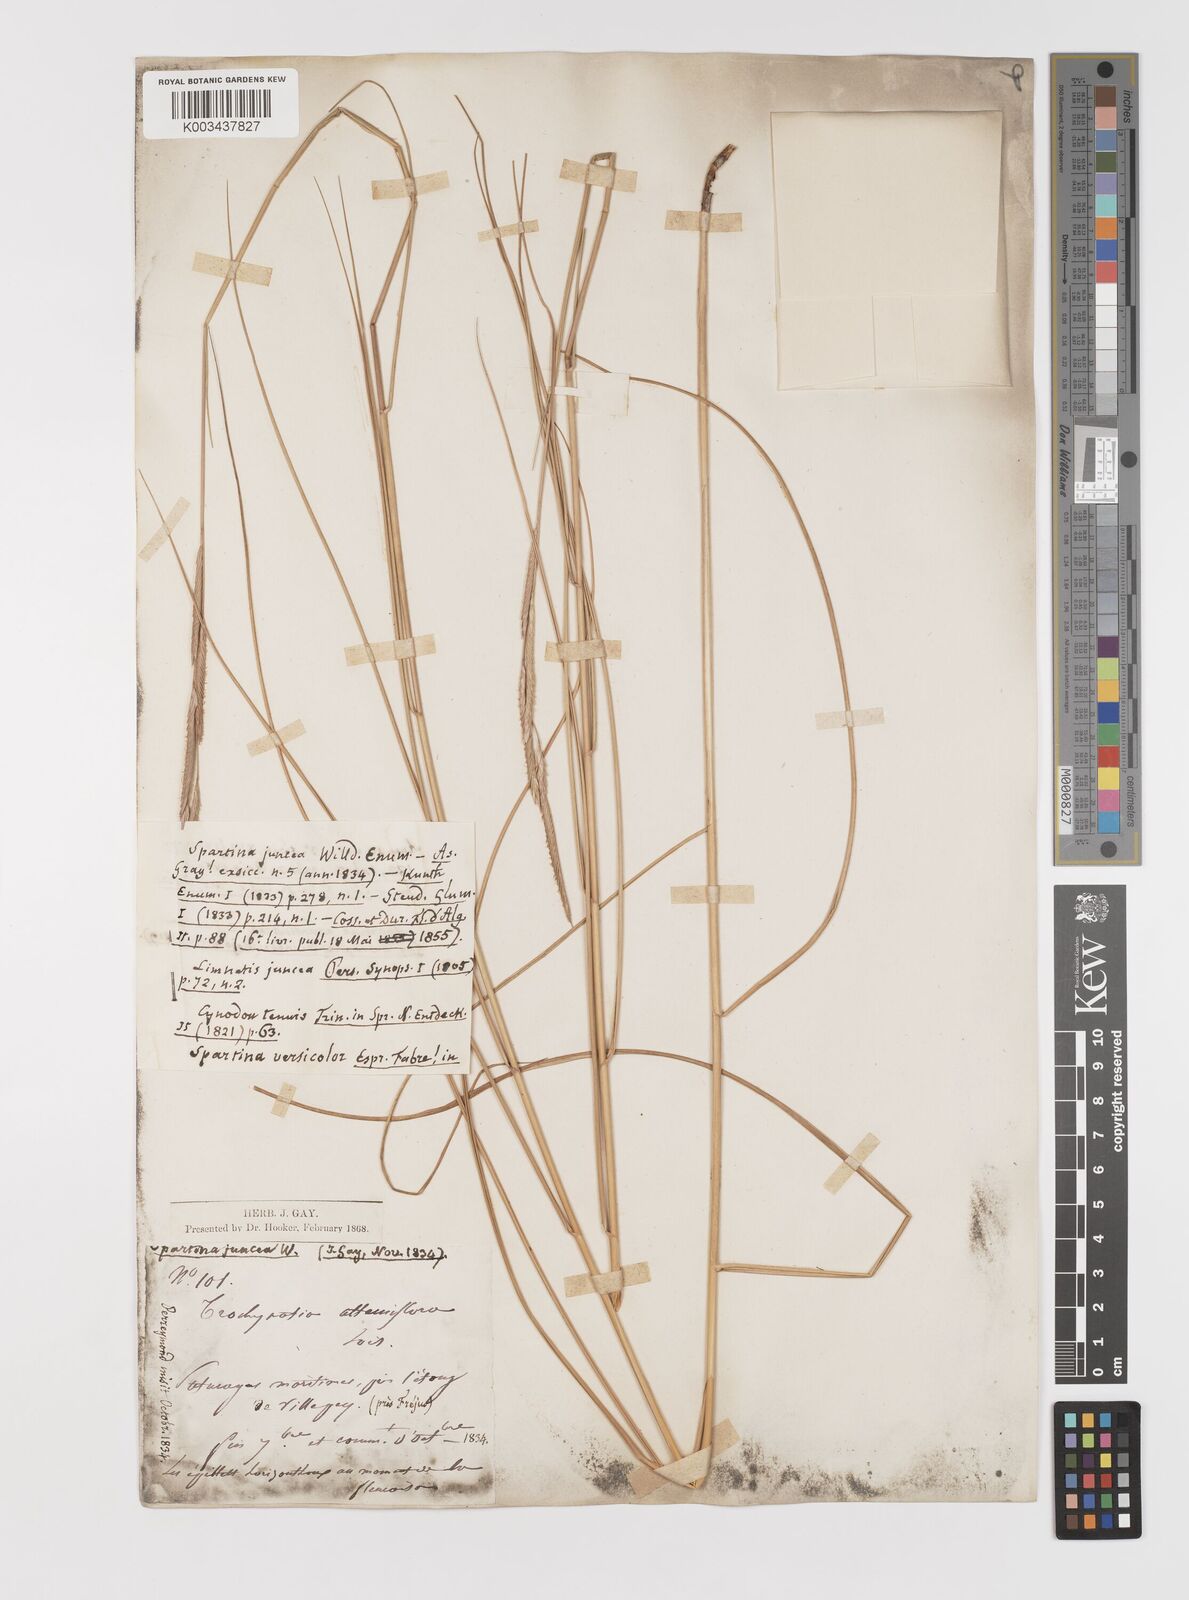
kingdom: Plantae
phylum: Tracheophyta
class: Liliopsida
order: Poales
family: Poaceae
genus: Sporobolus
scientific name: Sporobolus versicolor
